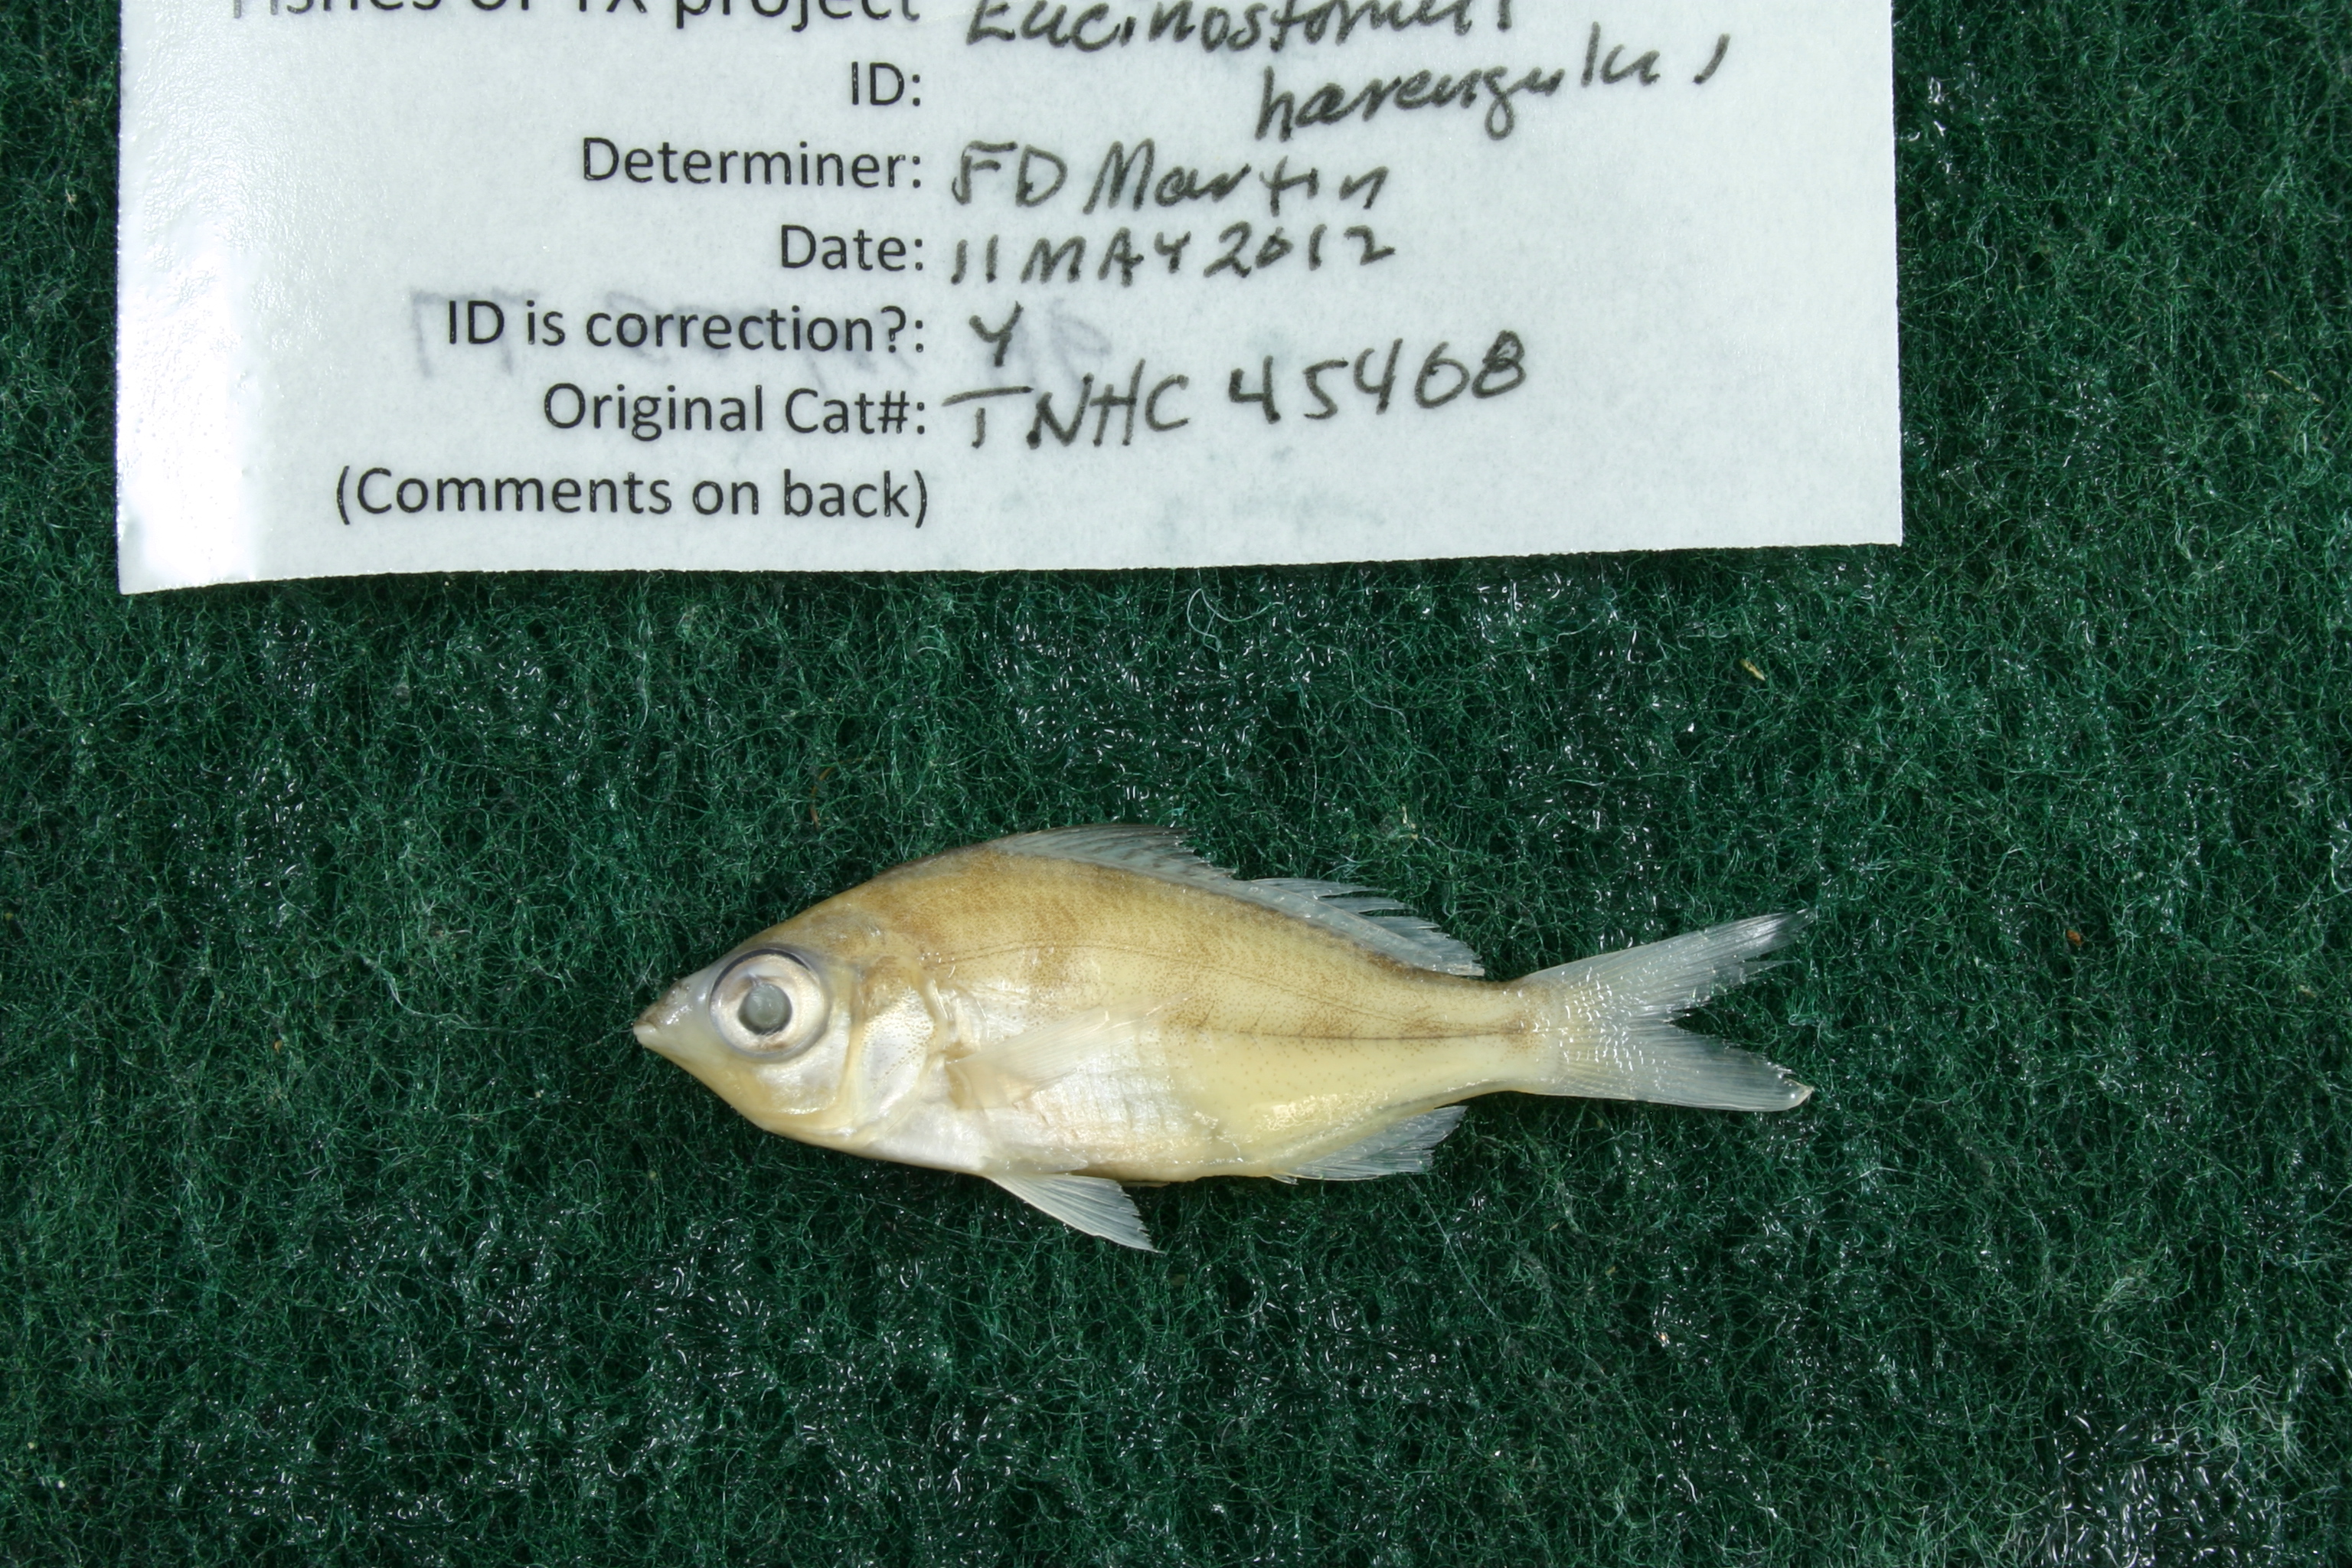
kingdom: Animalia
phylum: Chordata
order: Perciformes
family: Gerreidae
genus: Eucinostomus
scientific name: Eucinostomus harengulus
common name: Tidewater mojarra
